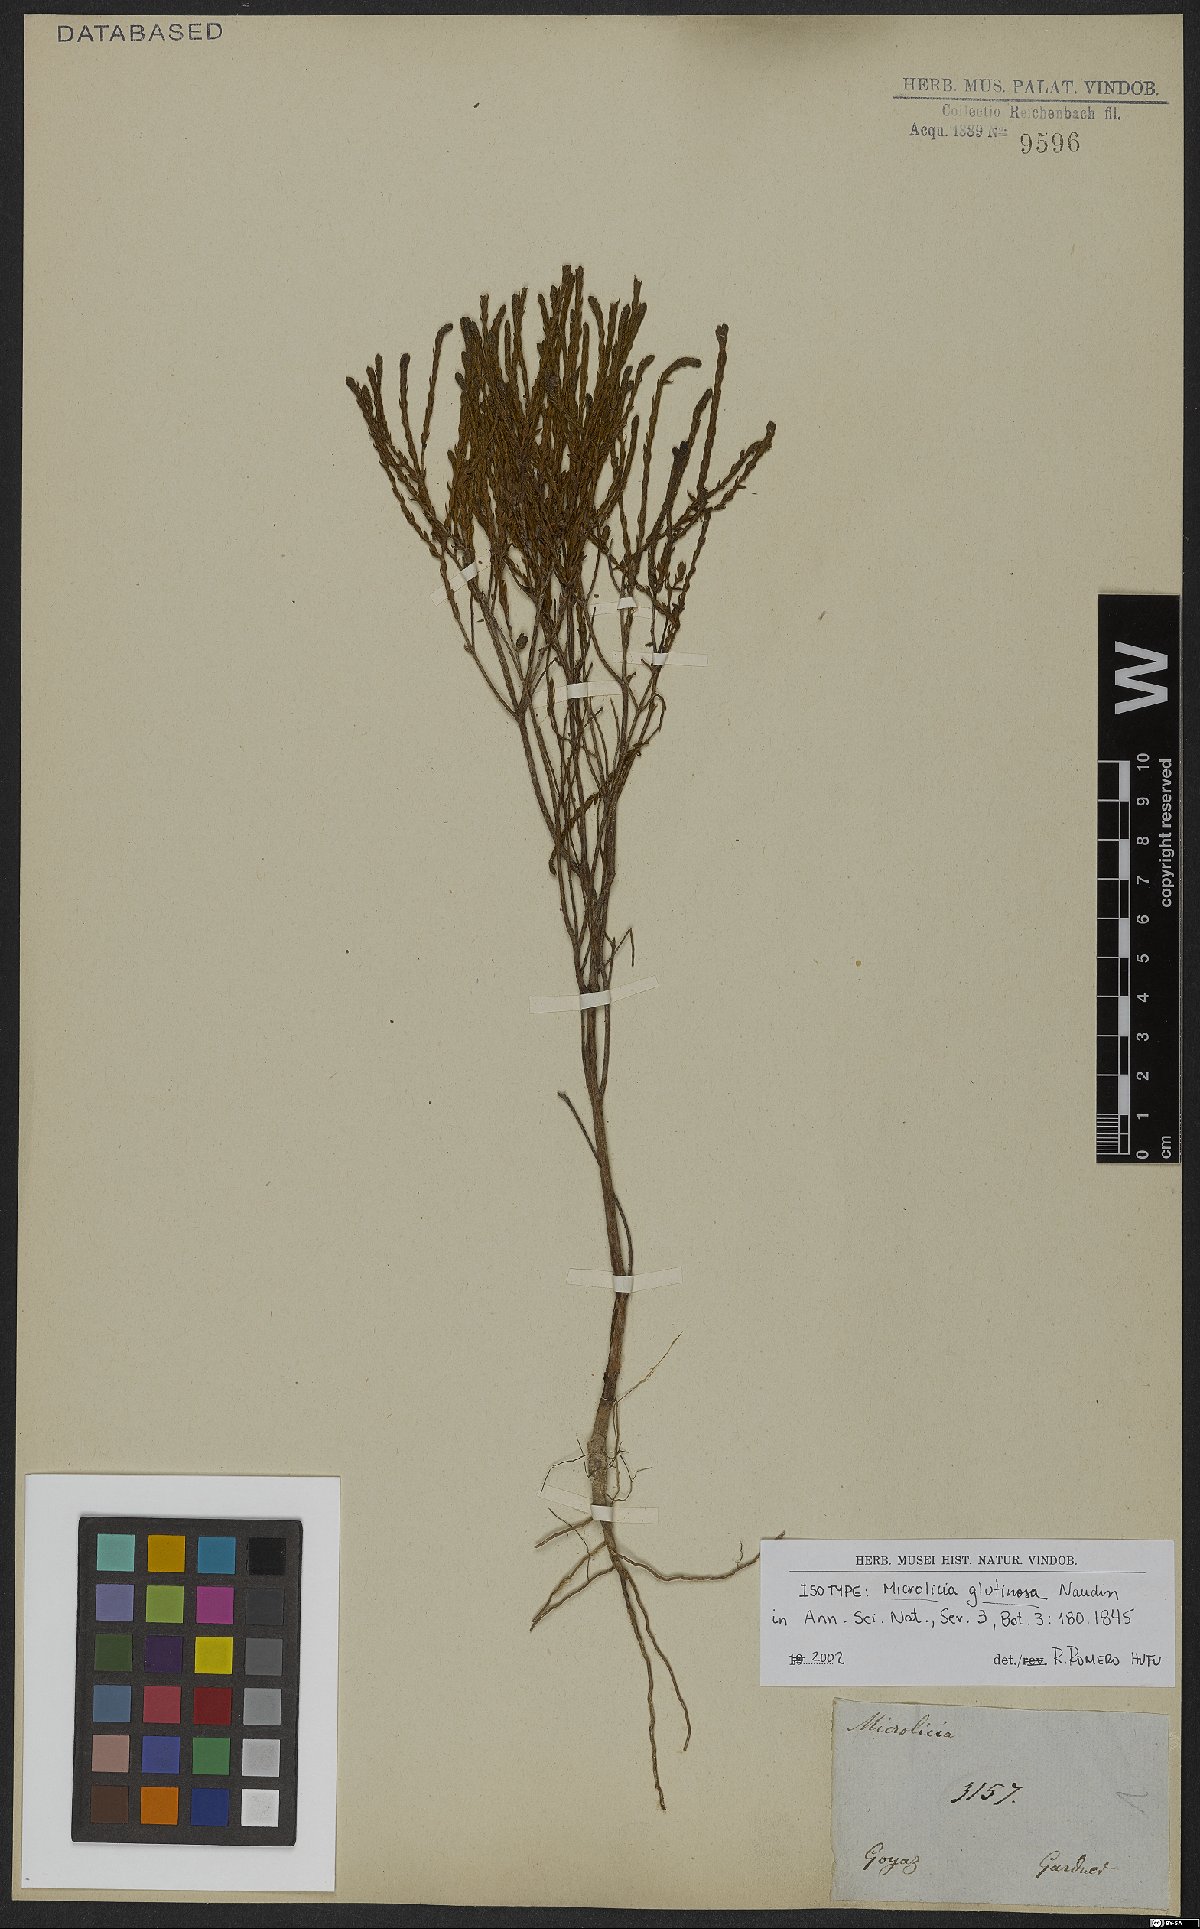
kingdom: Plantae
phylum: Tracheophyta
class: Magnoliopsida
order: Myrtales
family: Melastomataceae
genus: Microlicia
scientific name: Microlicia glutinosa
